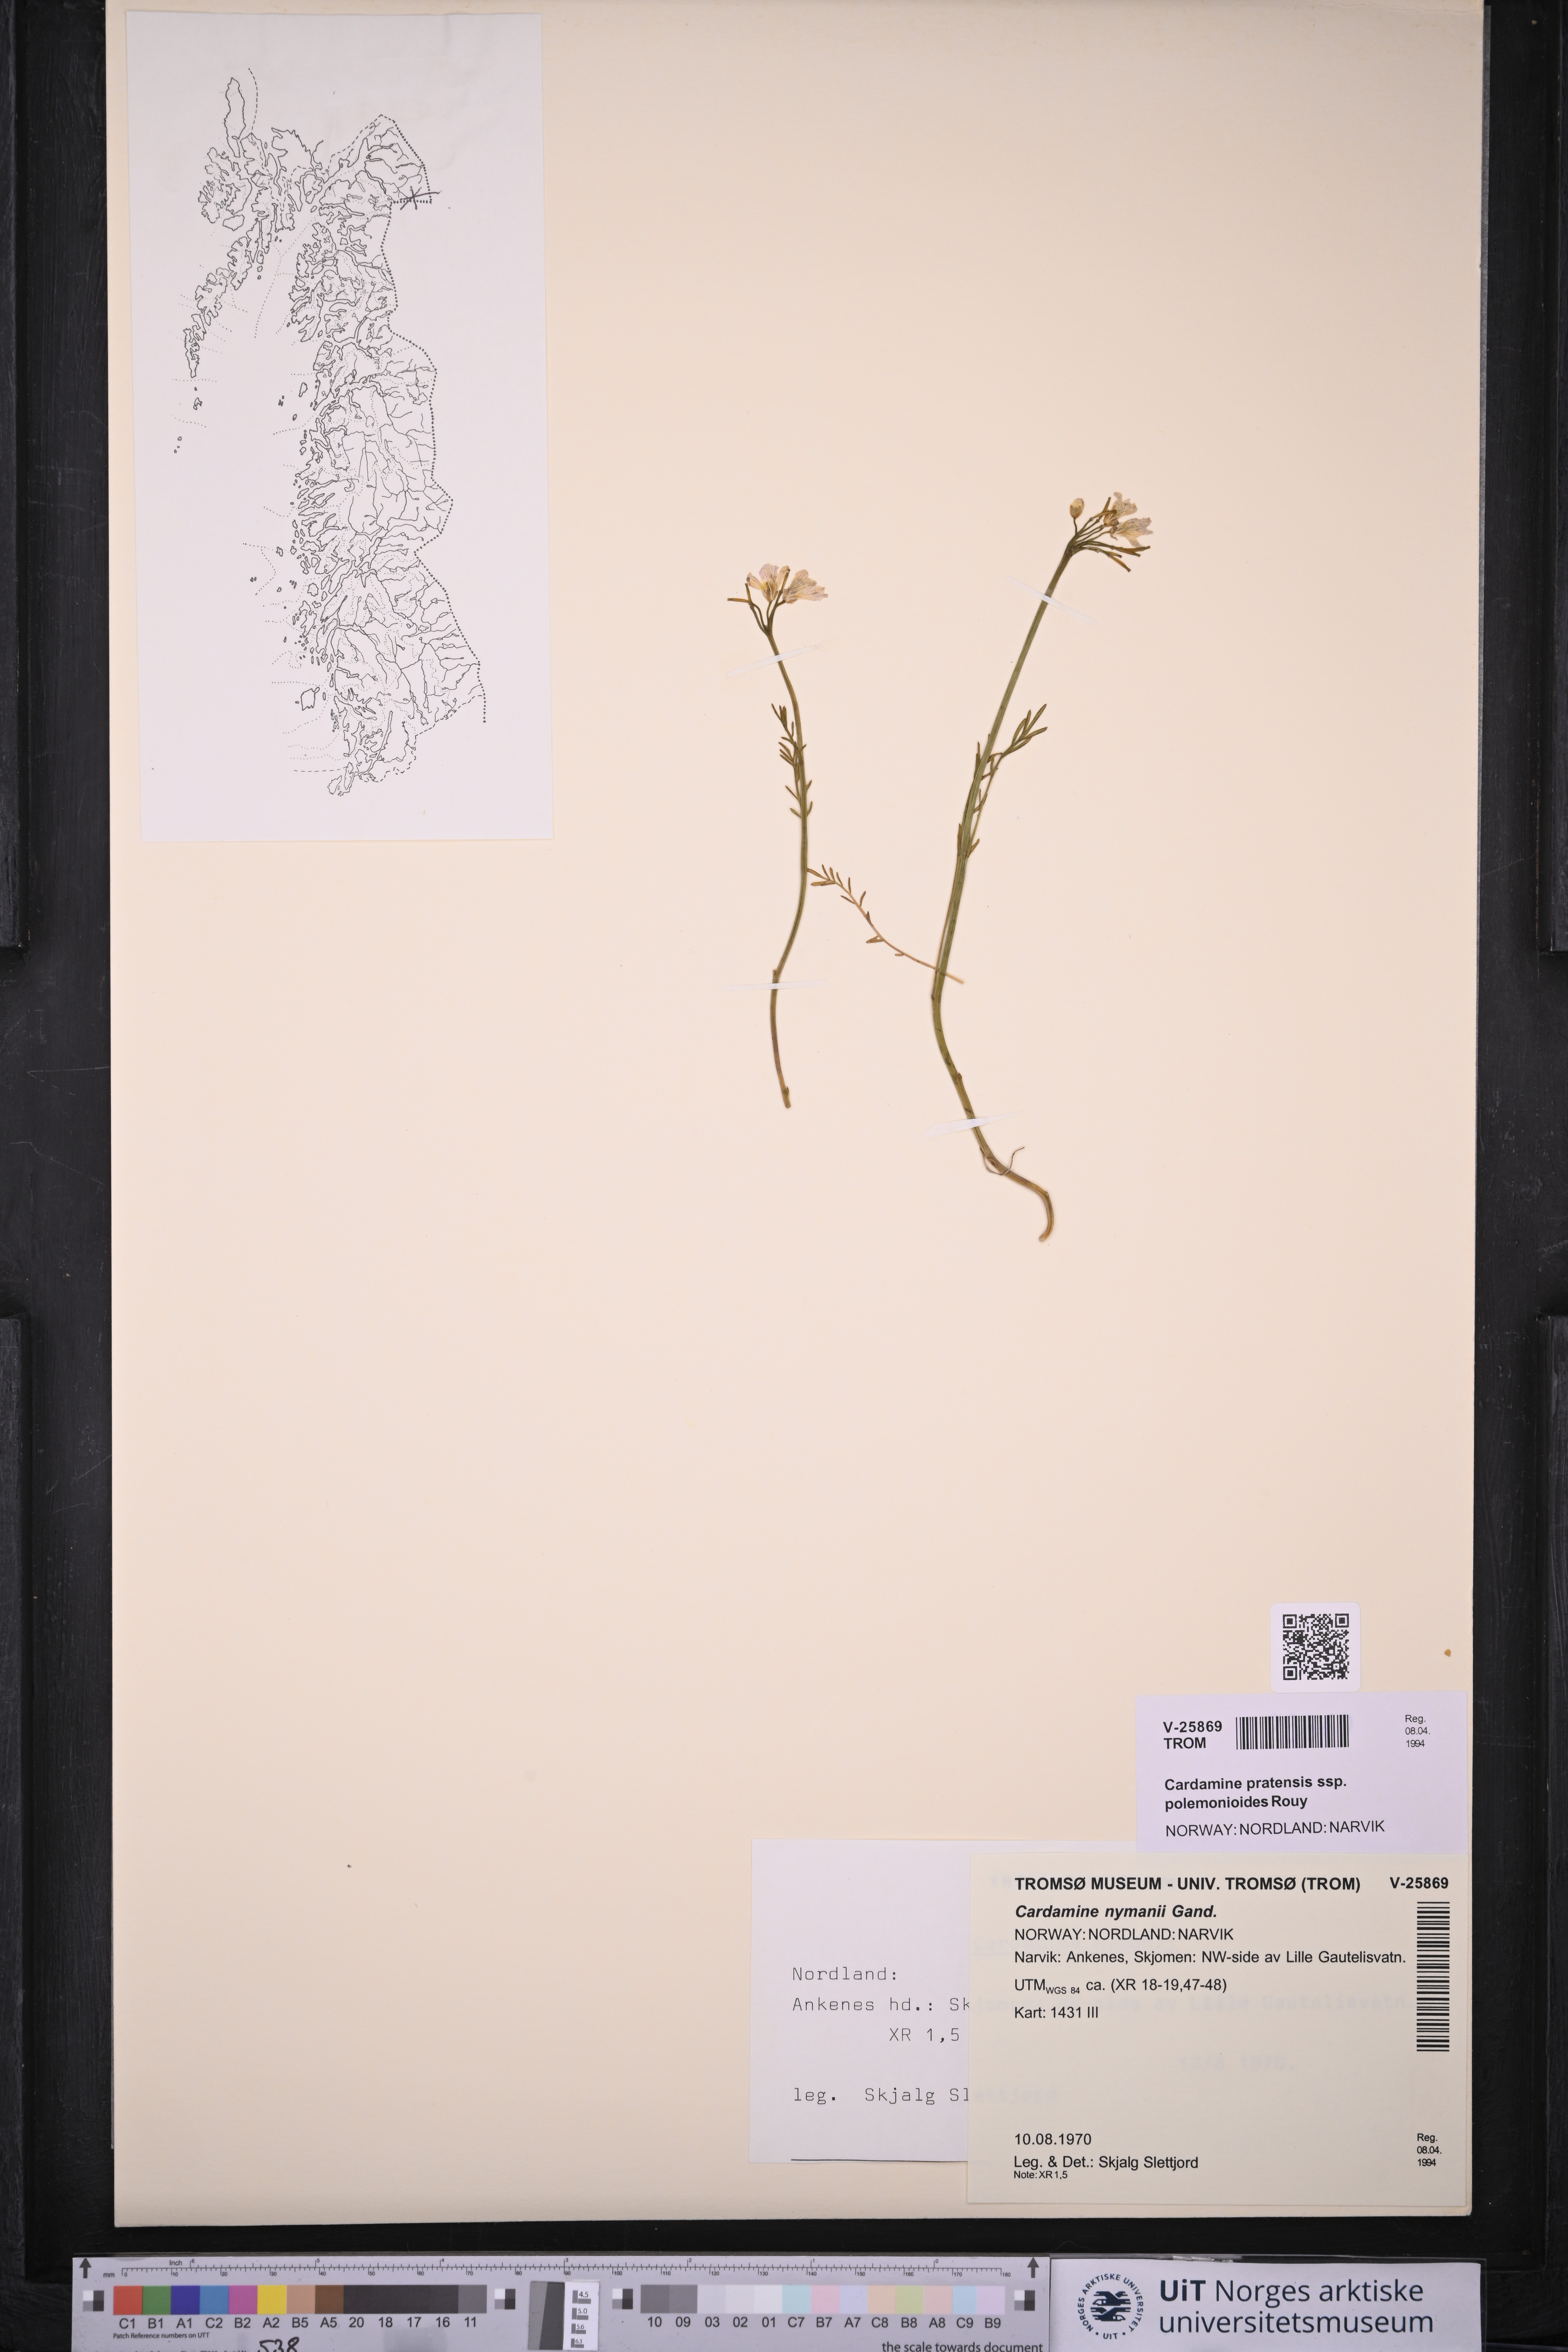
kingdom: Plantae
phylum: Tracheophyta
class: Magnoliopsida
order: Brassicales
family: Brassicaceae
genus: Cardamine
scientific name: Cardamine nymanii
